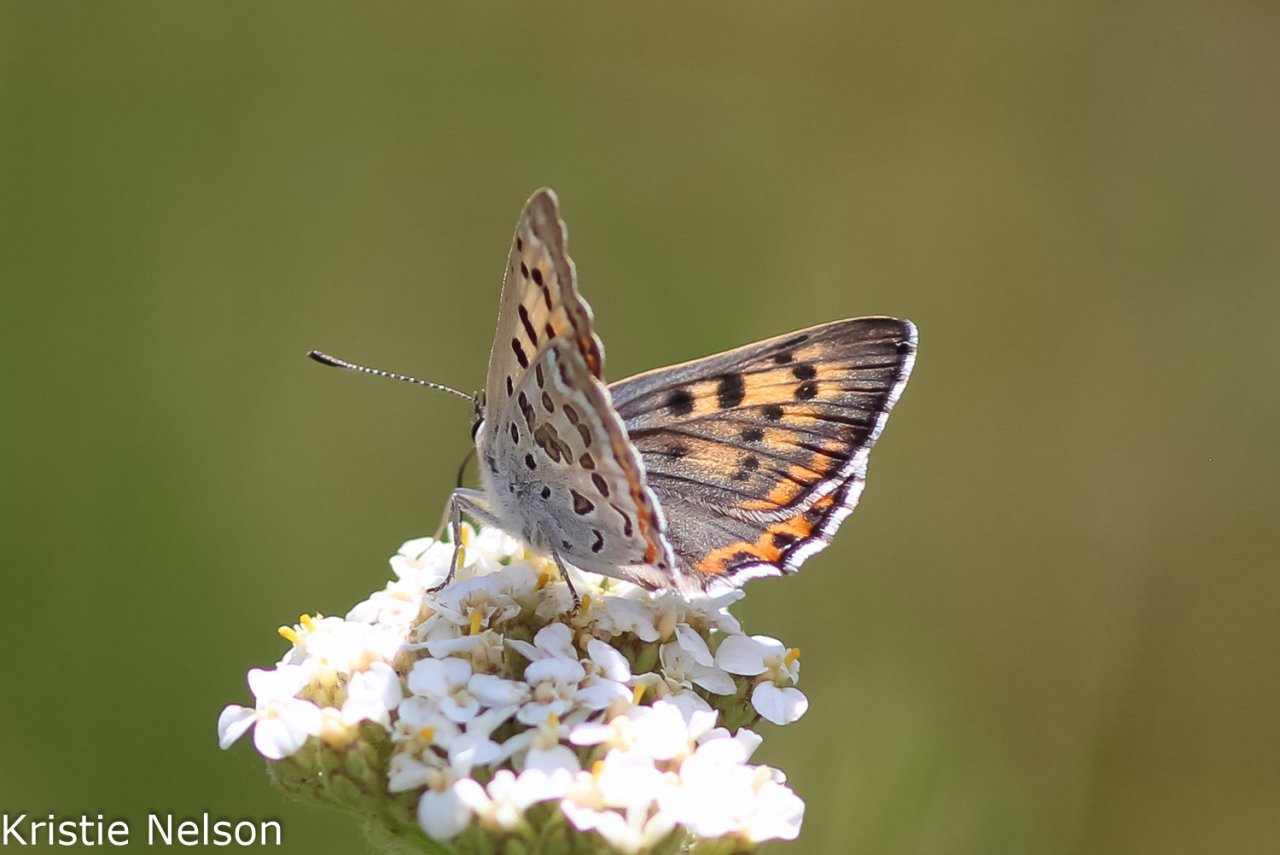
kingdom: Animalia
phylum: Arthropoda
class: Insecta
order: Lepidoptera
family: Lycaenidae
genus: Lycaena
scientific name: Lycaena
